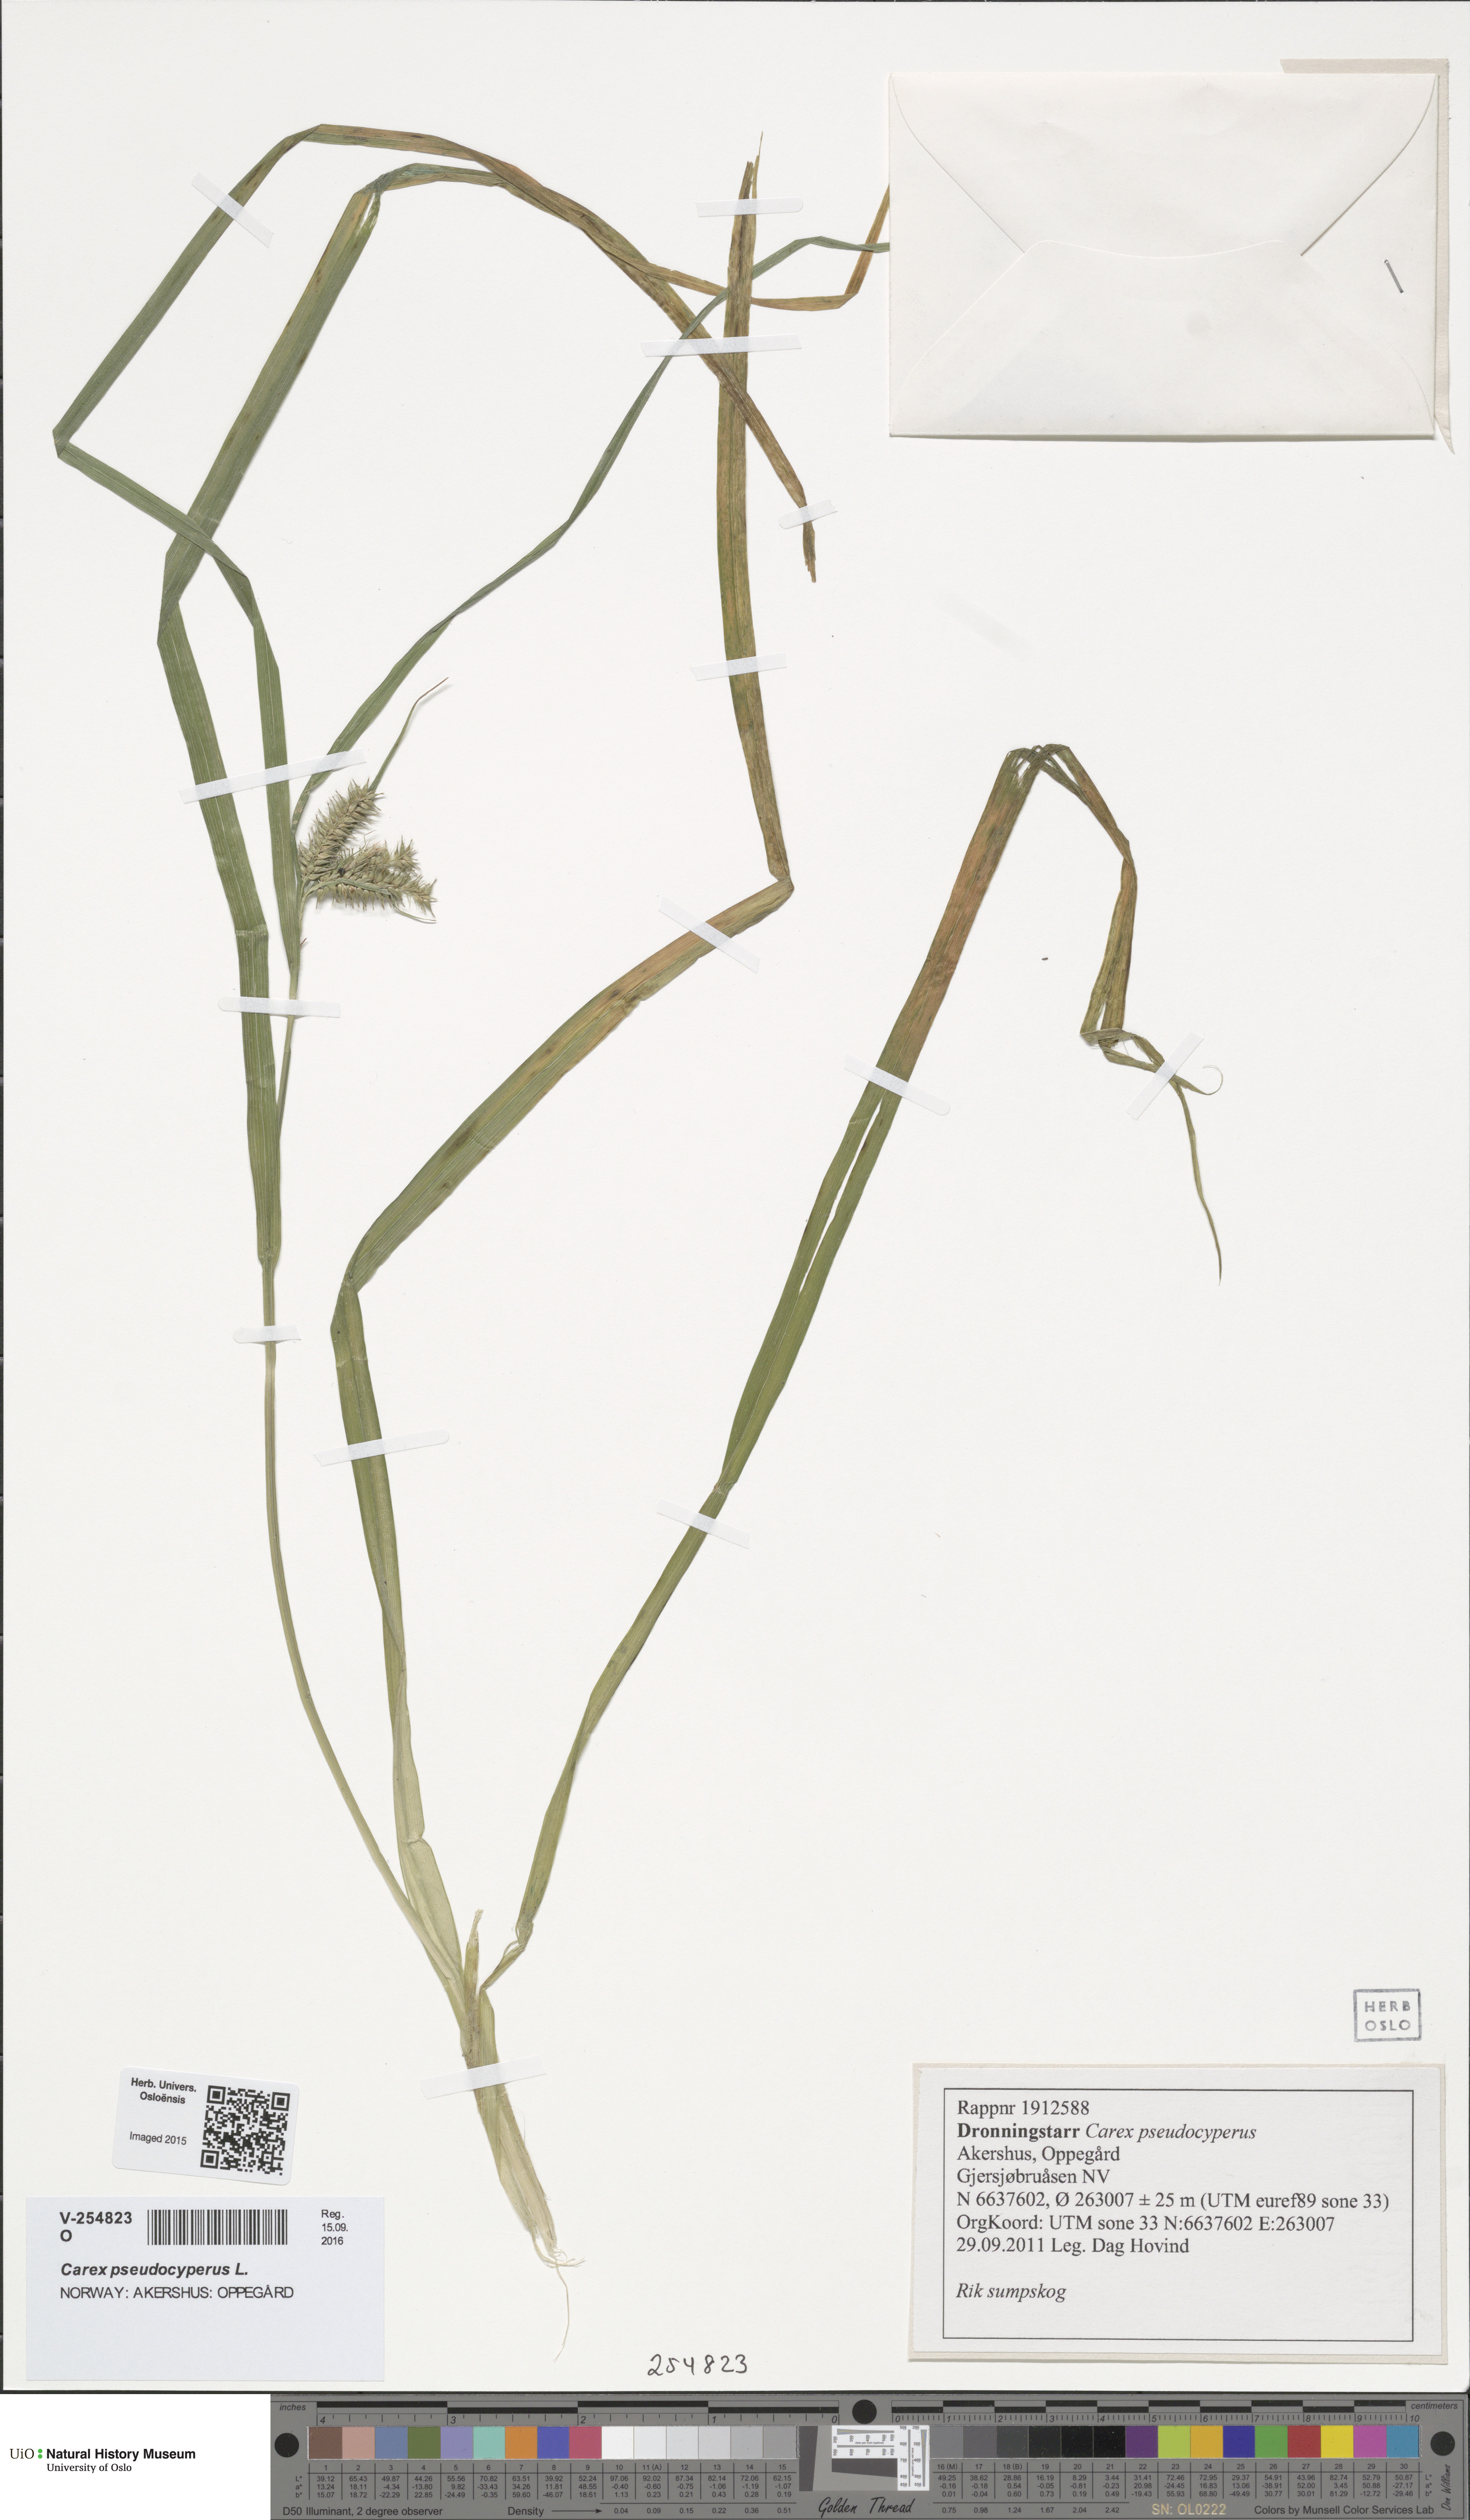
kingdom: Plantae
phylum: Tracheophyta
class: Liliopsida
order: Poales
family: Cyperaceae
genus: Carex
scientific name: Carex pseudocyperus
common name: Cyperus sedge
